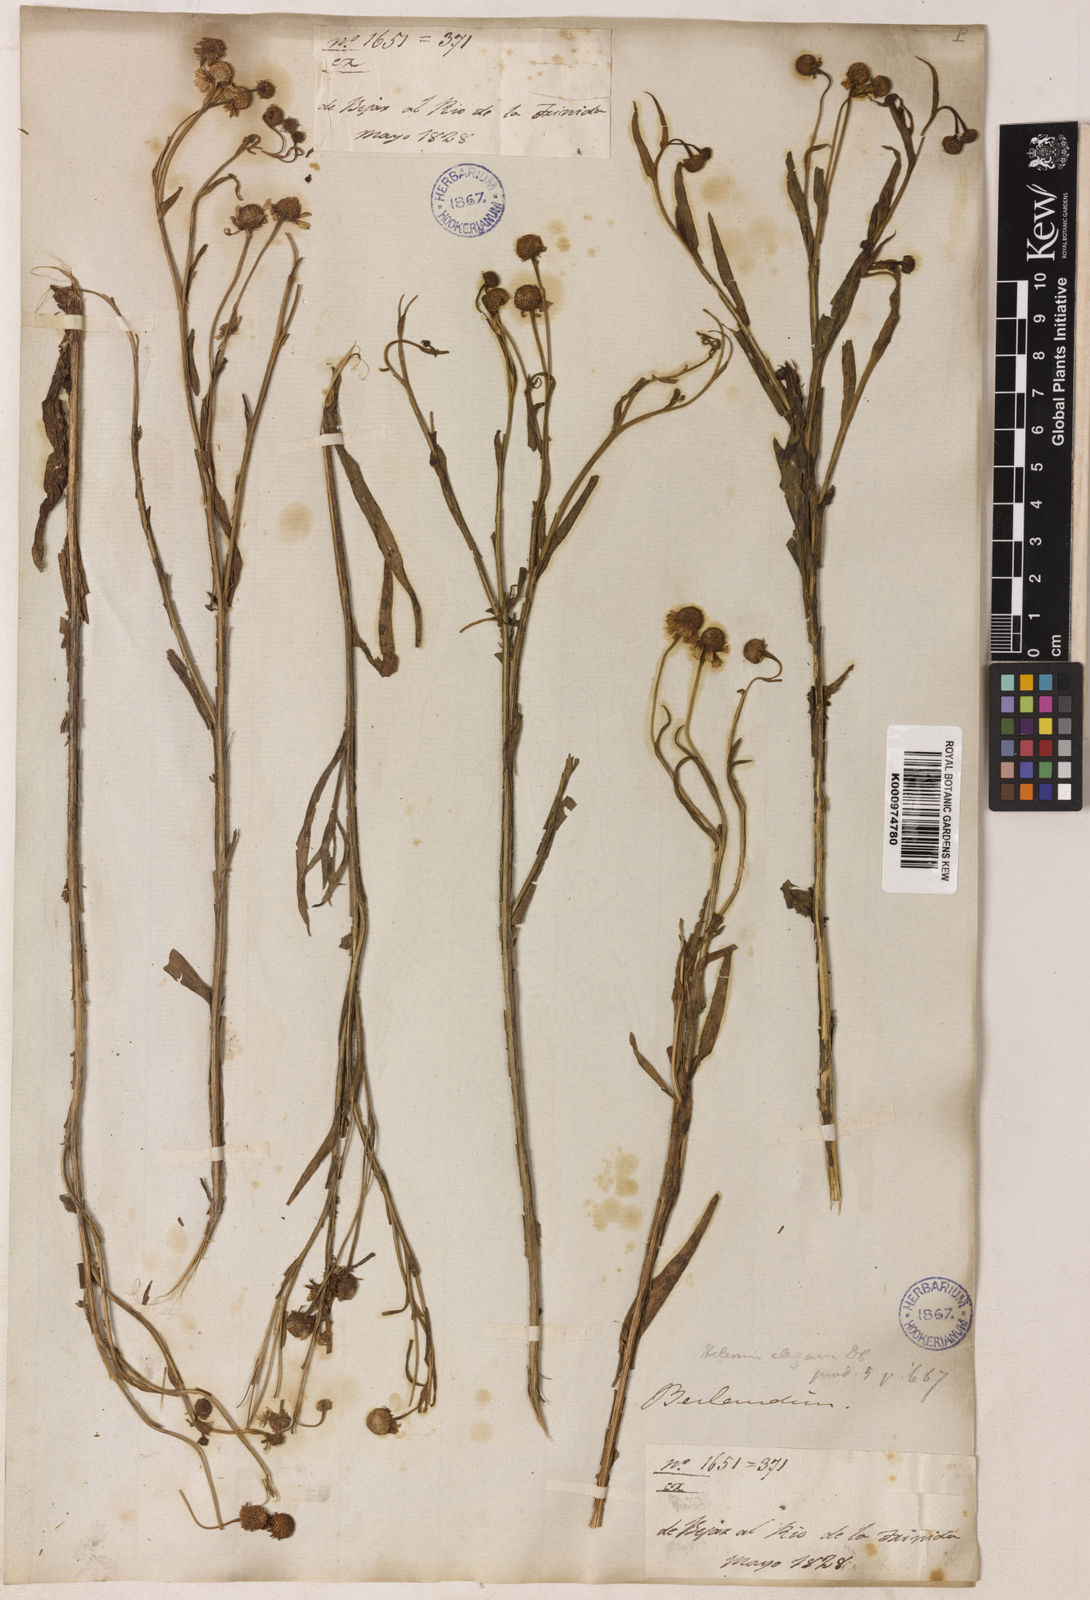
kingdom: Plantae
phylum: Tracheophyta
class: Magnoliopsida
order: Asterales
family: Asteraceae
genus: Helenium
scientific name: Helenium microcephalum
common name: Smallhead sneezeweed
